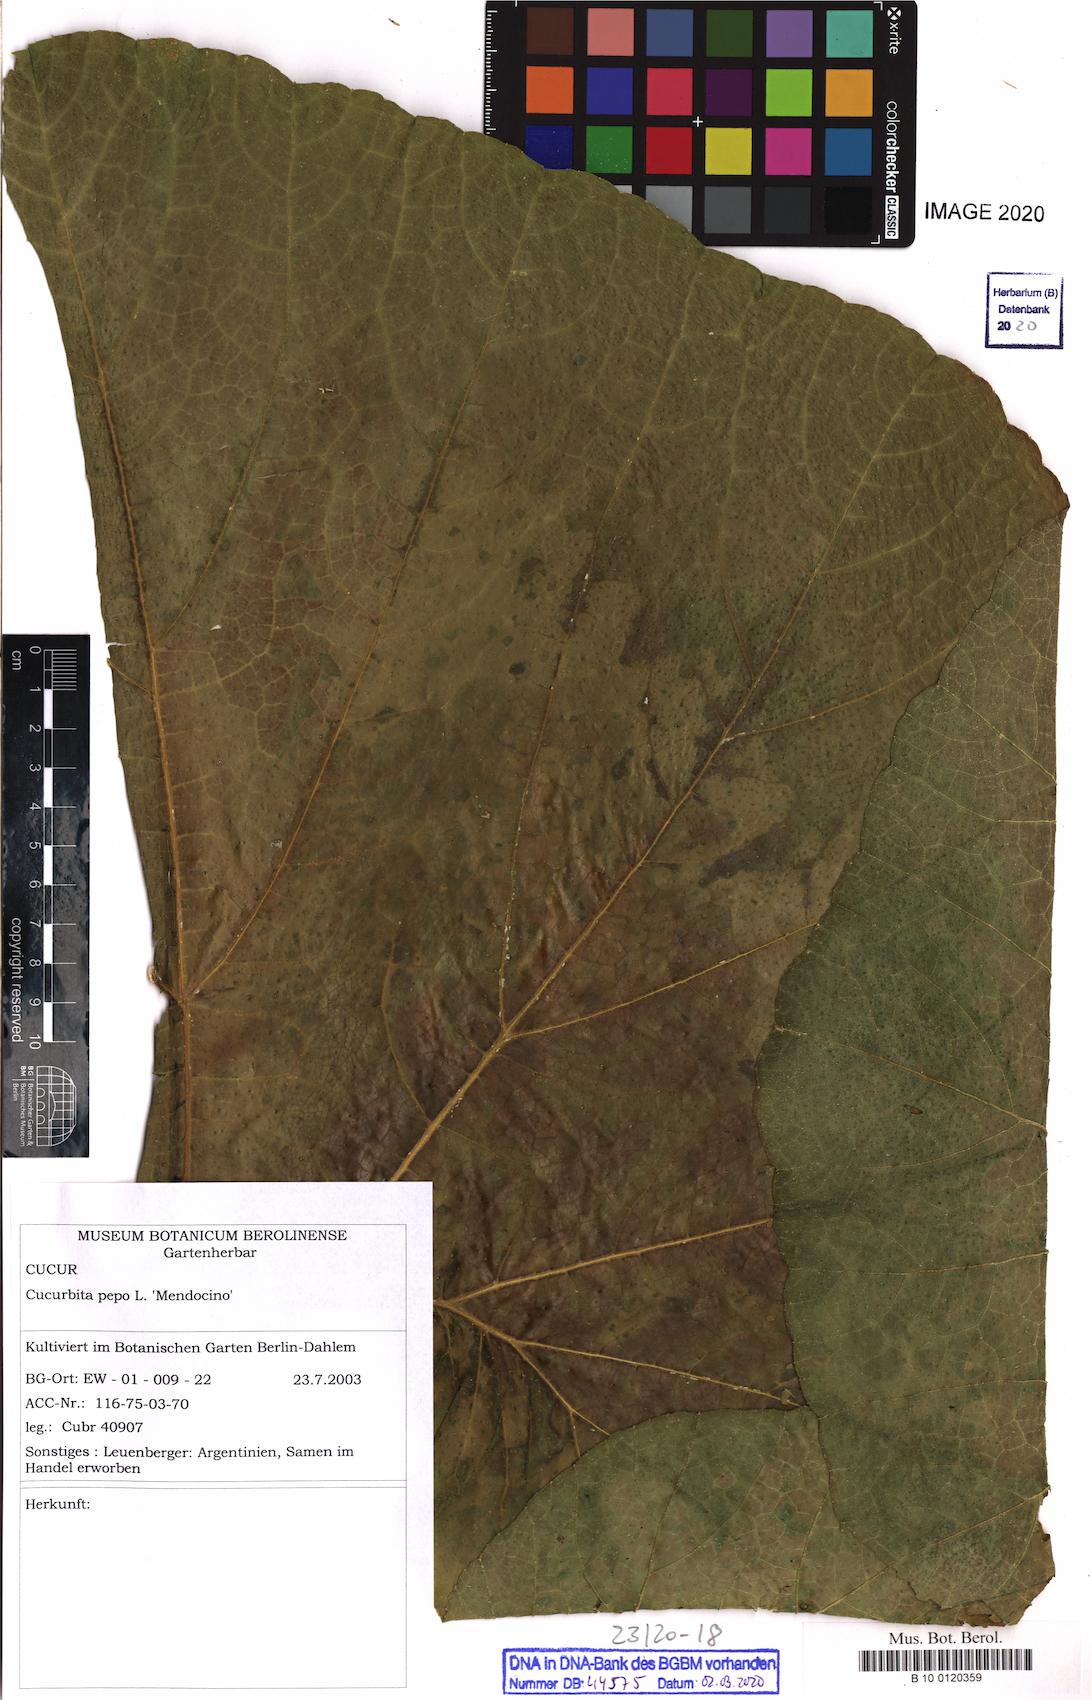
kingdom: Plantae
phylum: Tracheophyta
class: Magnoliopsida
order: Cucurbitales
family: Cucurbitaceae
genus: Cucurbita
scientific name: Cucurbita pepo
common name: Marrow
